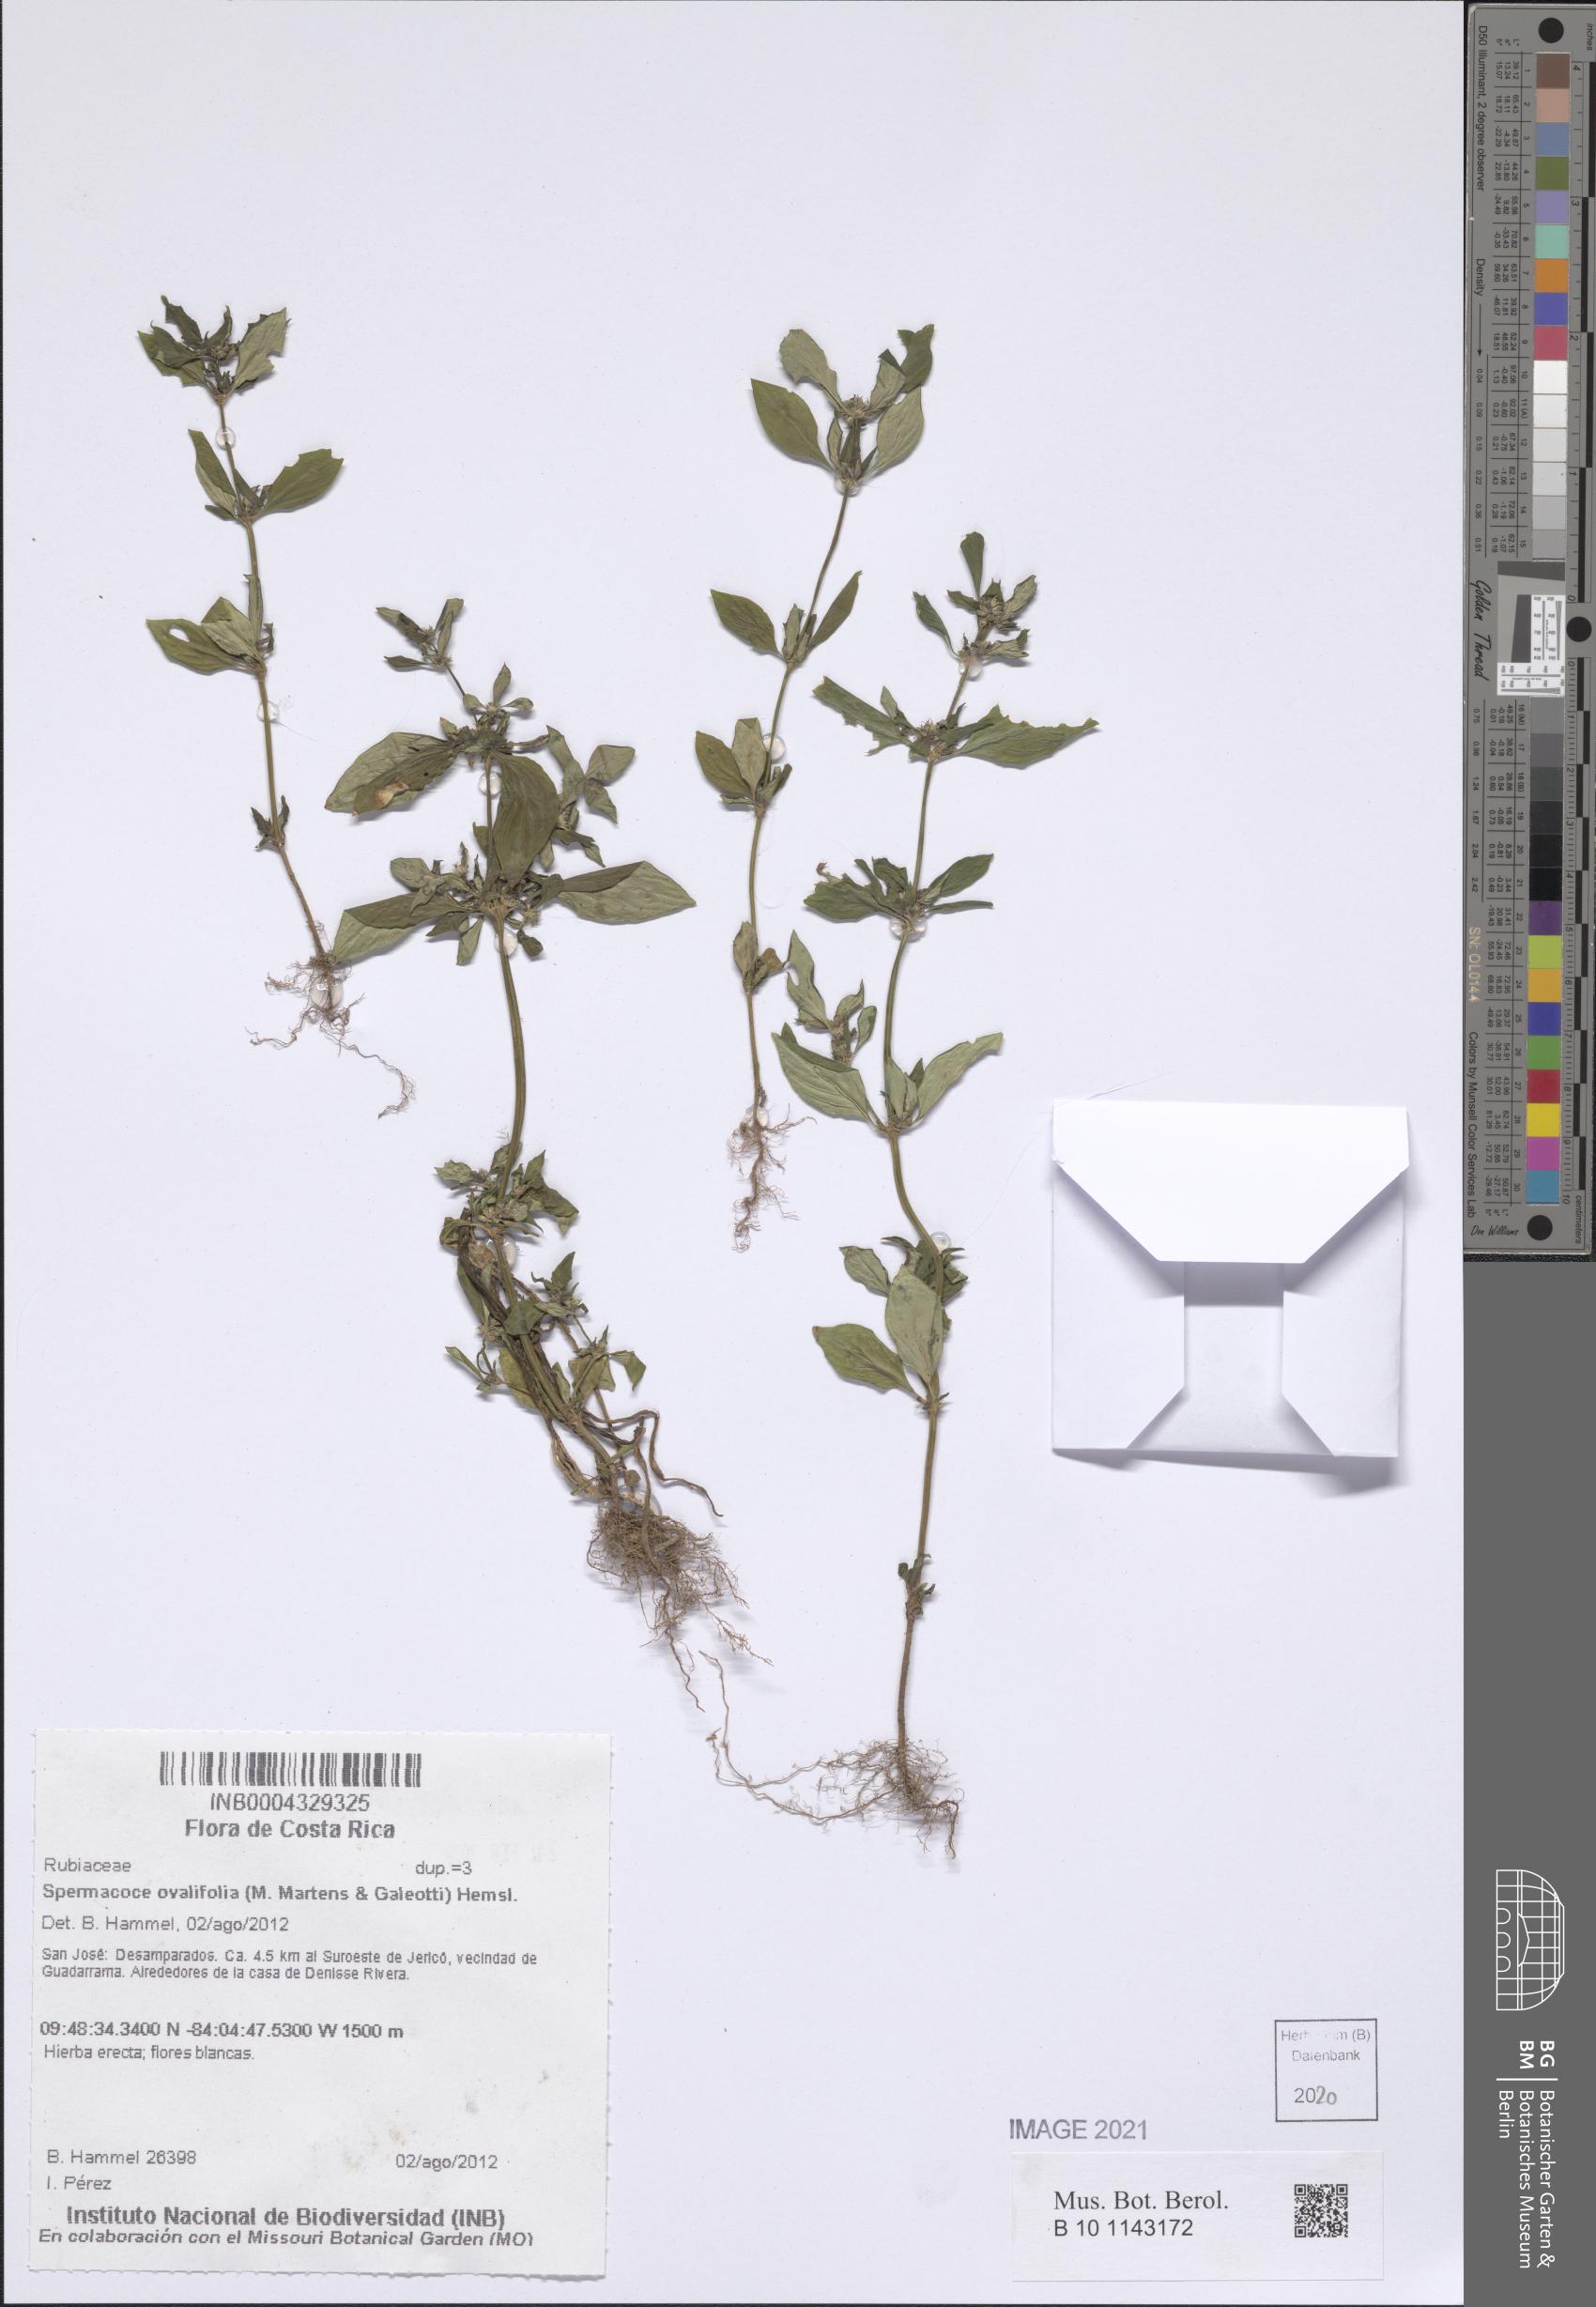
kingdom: Plantae
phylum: Tracheophyta
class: Magnoliopsida
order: Gentianales
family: Rubiaceae
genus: Spermacoce
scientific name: Spermacoce ovalifolia
